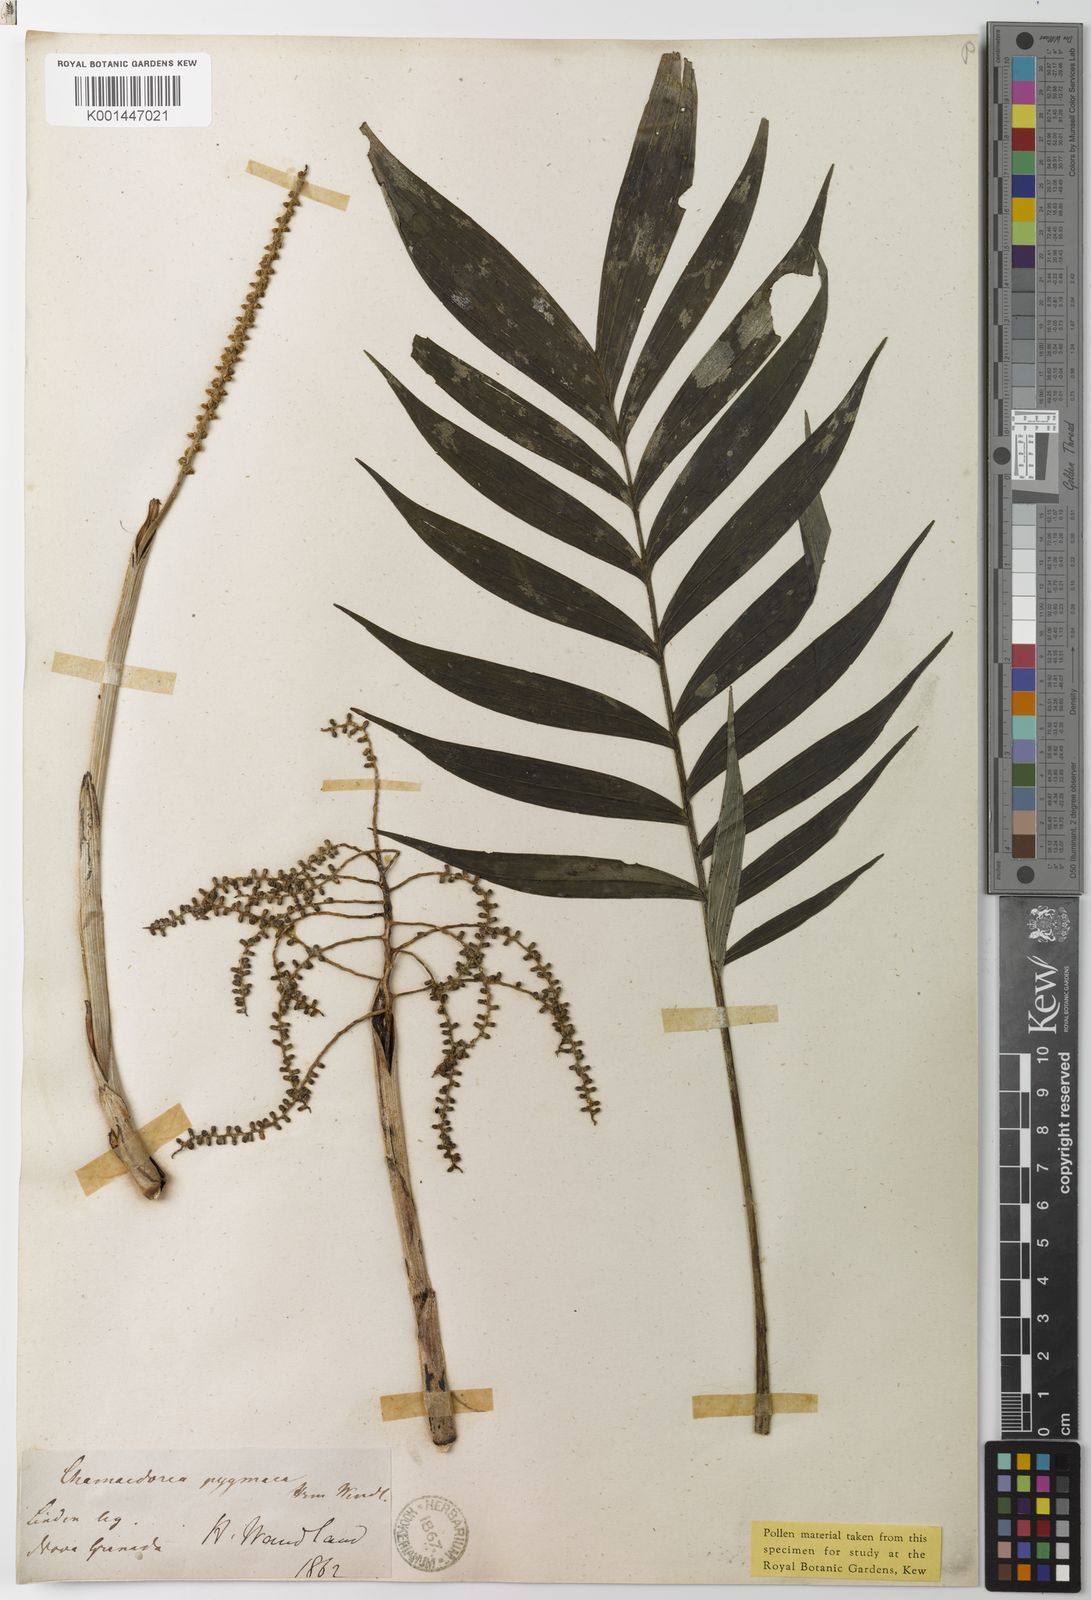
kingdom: Plantae
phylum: Tracheophyta
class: Liliopsida
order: Arecales
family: Arecaceae
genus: Chamaedorea
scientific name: Chamaedorea pygmaea
